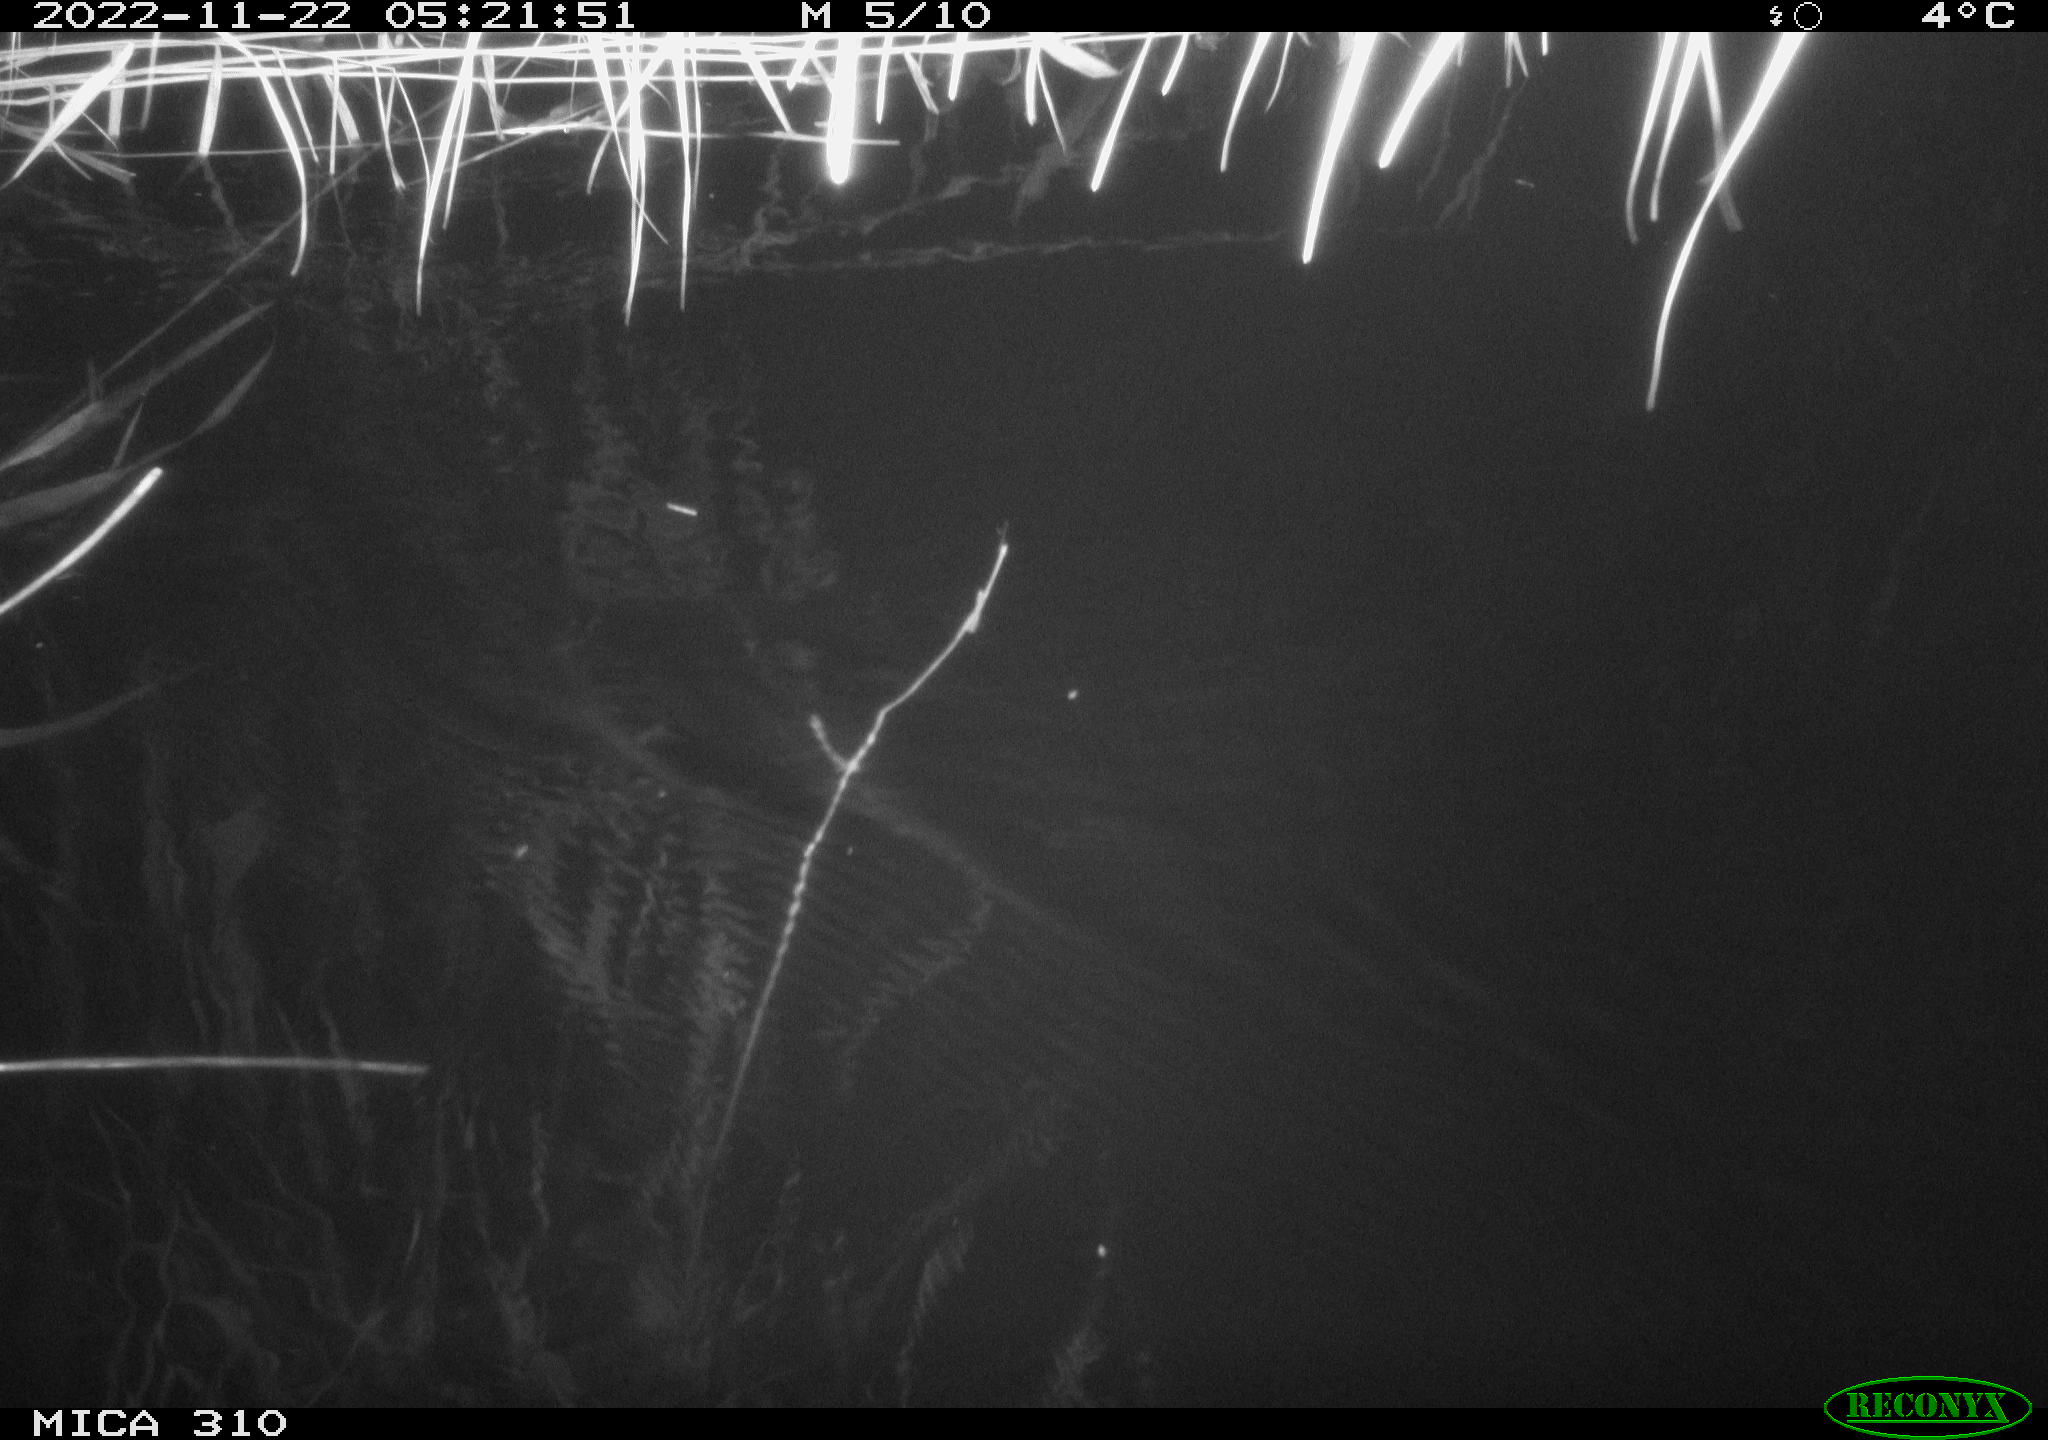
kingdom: Animalia
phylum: Chordata
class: Mammalia
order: Rodentia
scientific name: Rodentia
